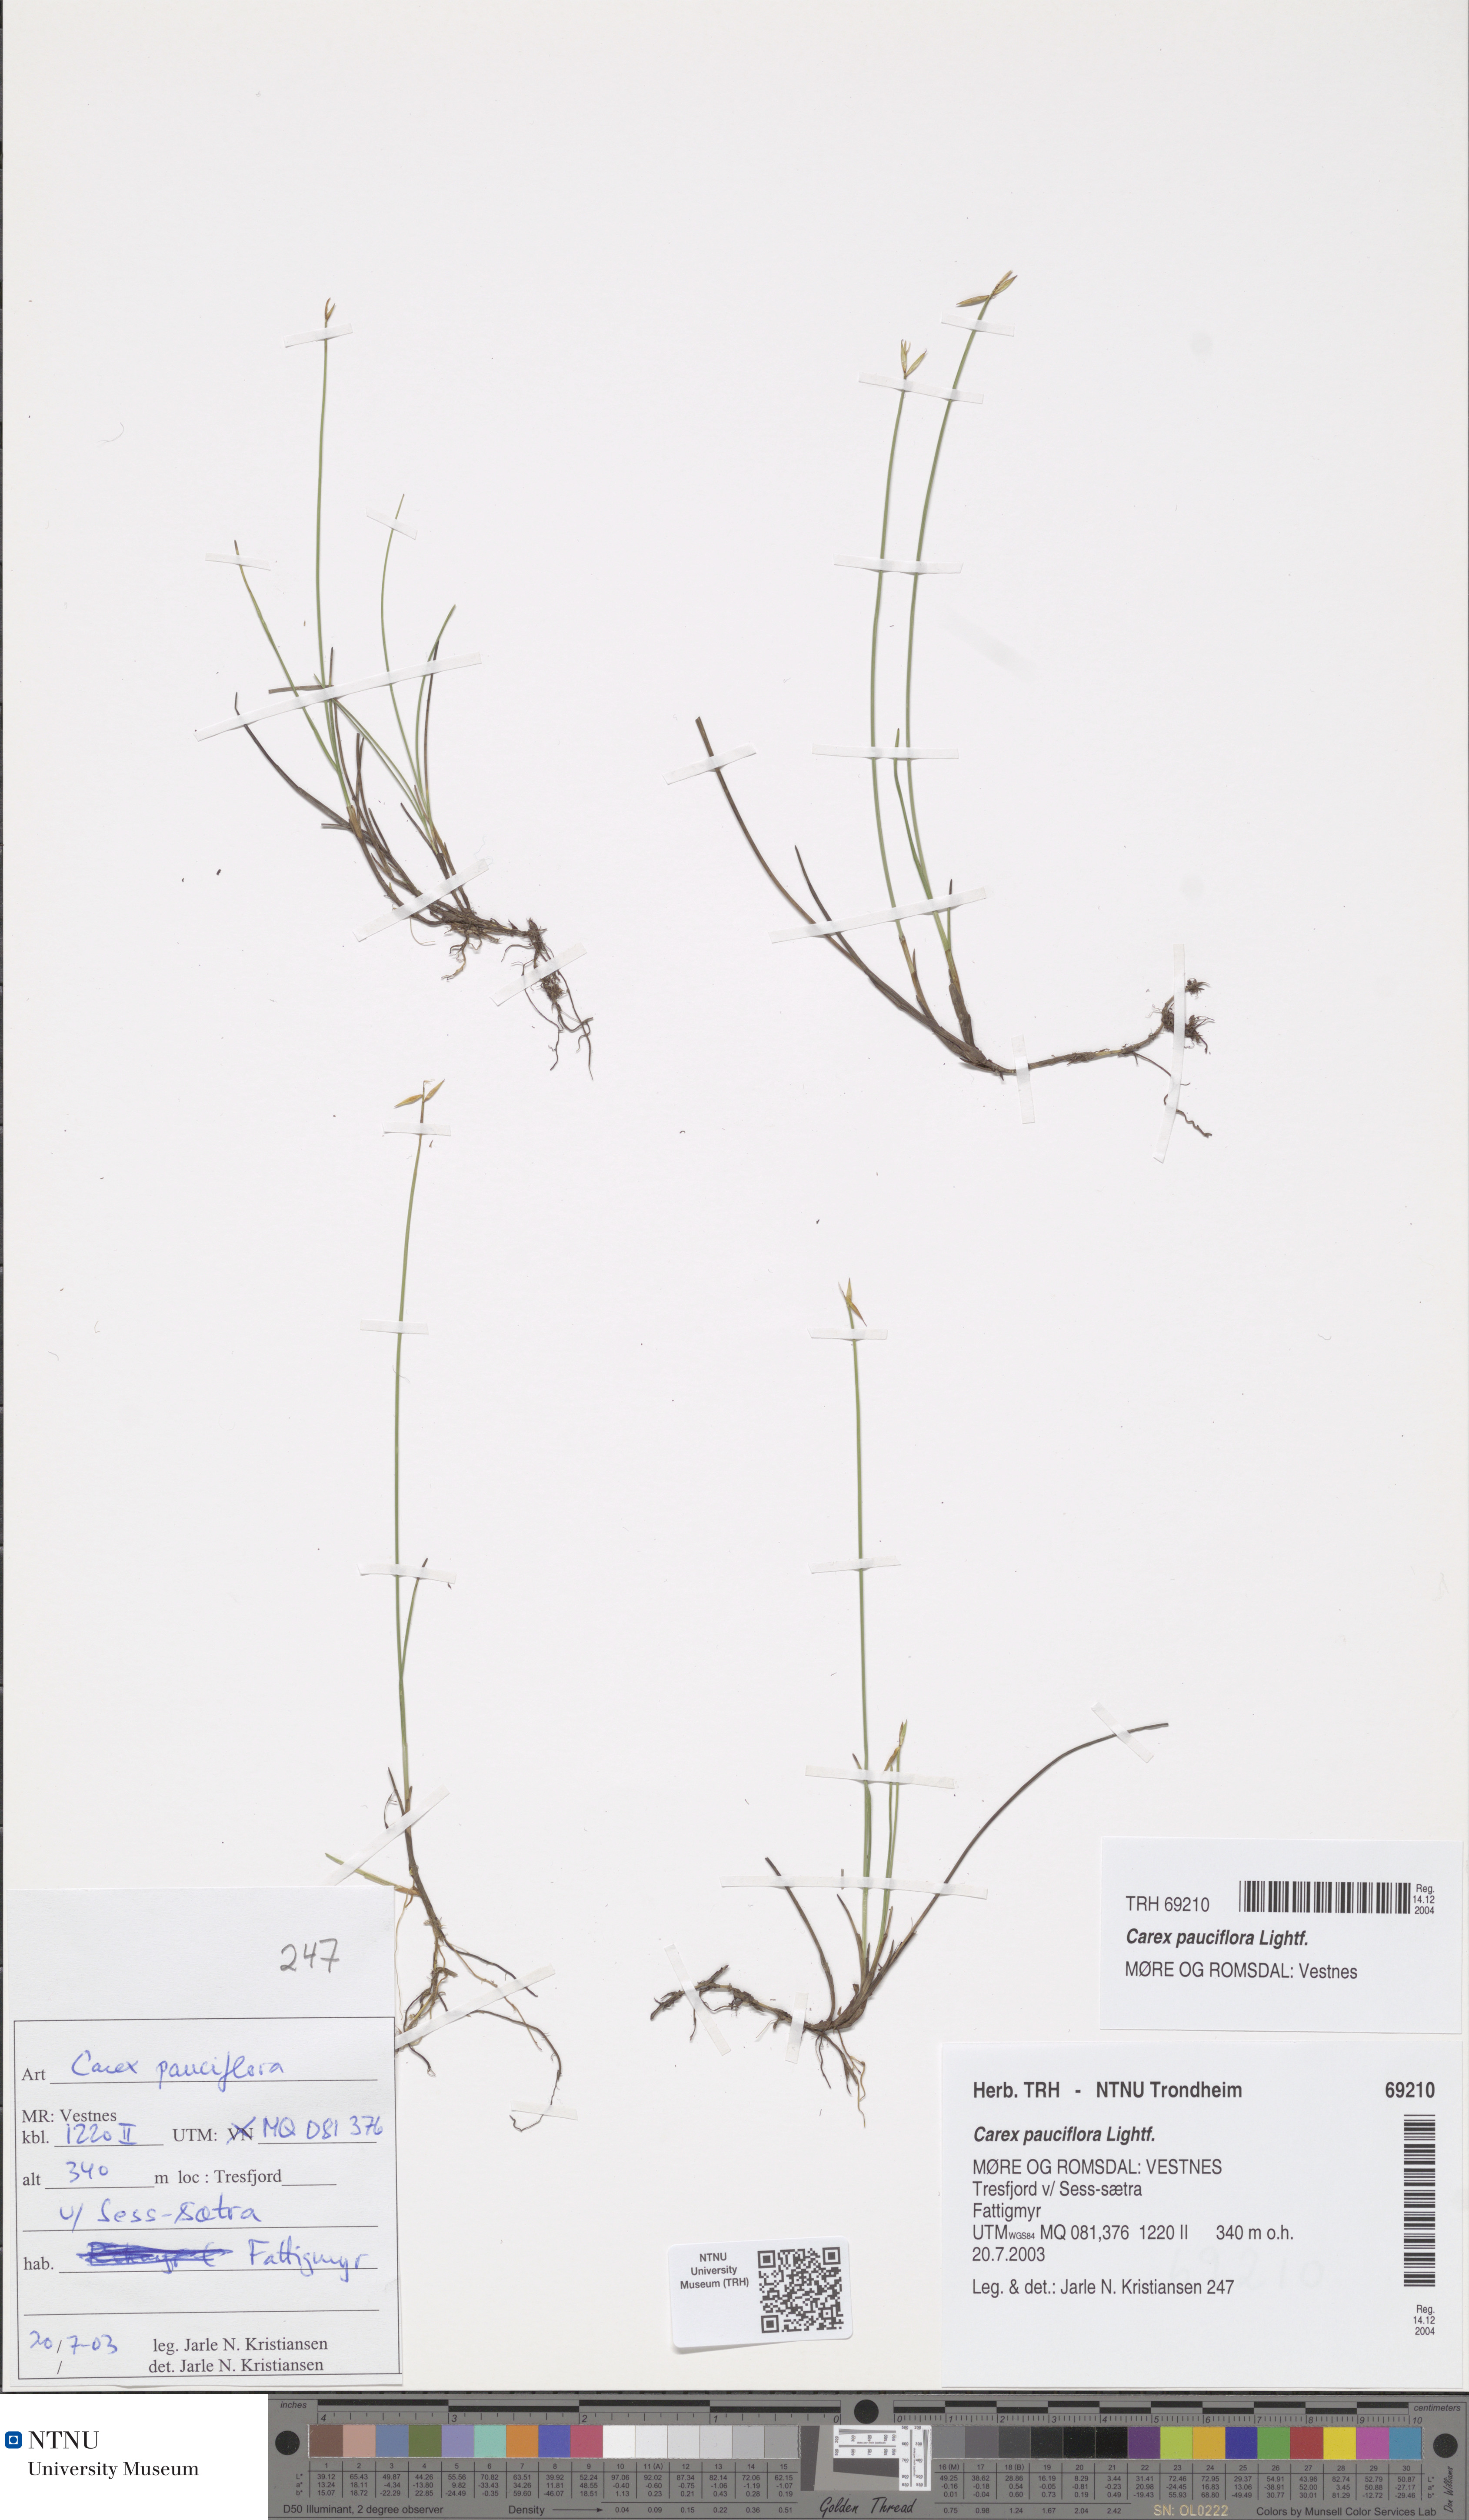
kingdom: Plantae
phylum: Tracheophyta
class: Liliopsida
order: Poales
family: Cyperaceae
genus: Carex
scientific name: Carex pauciflora
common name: Few-flowered sedge
